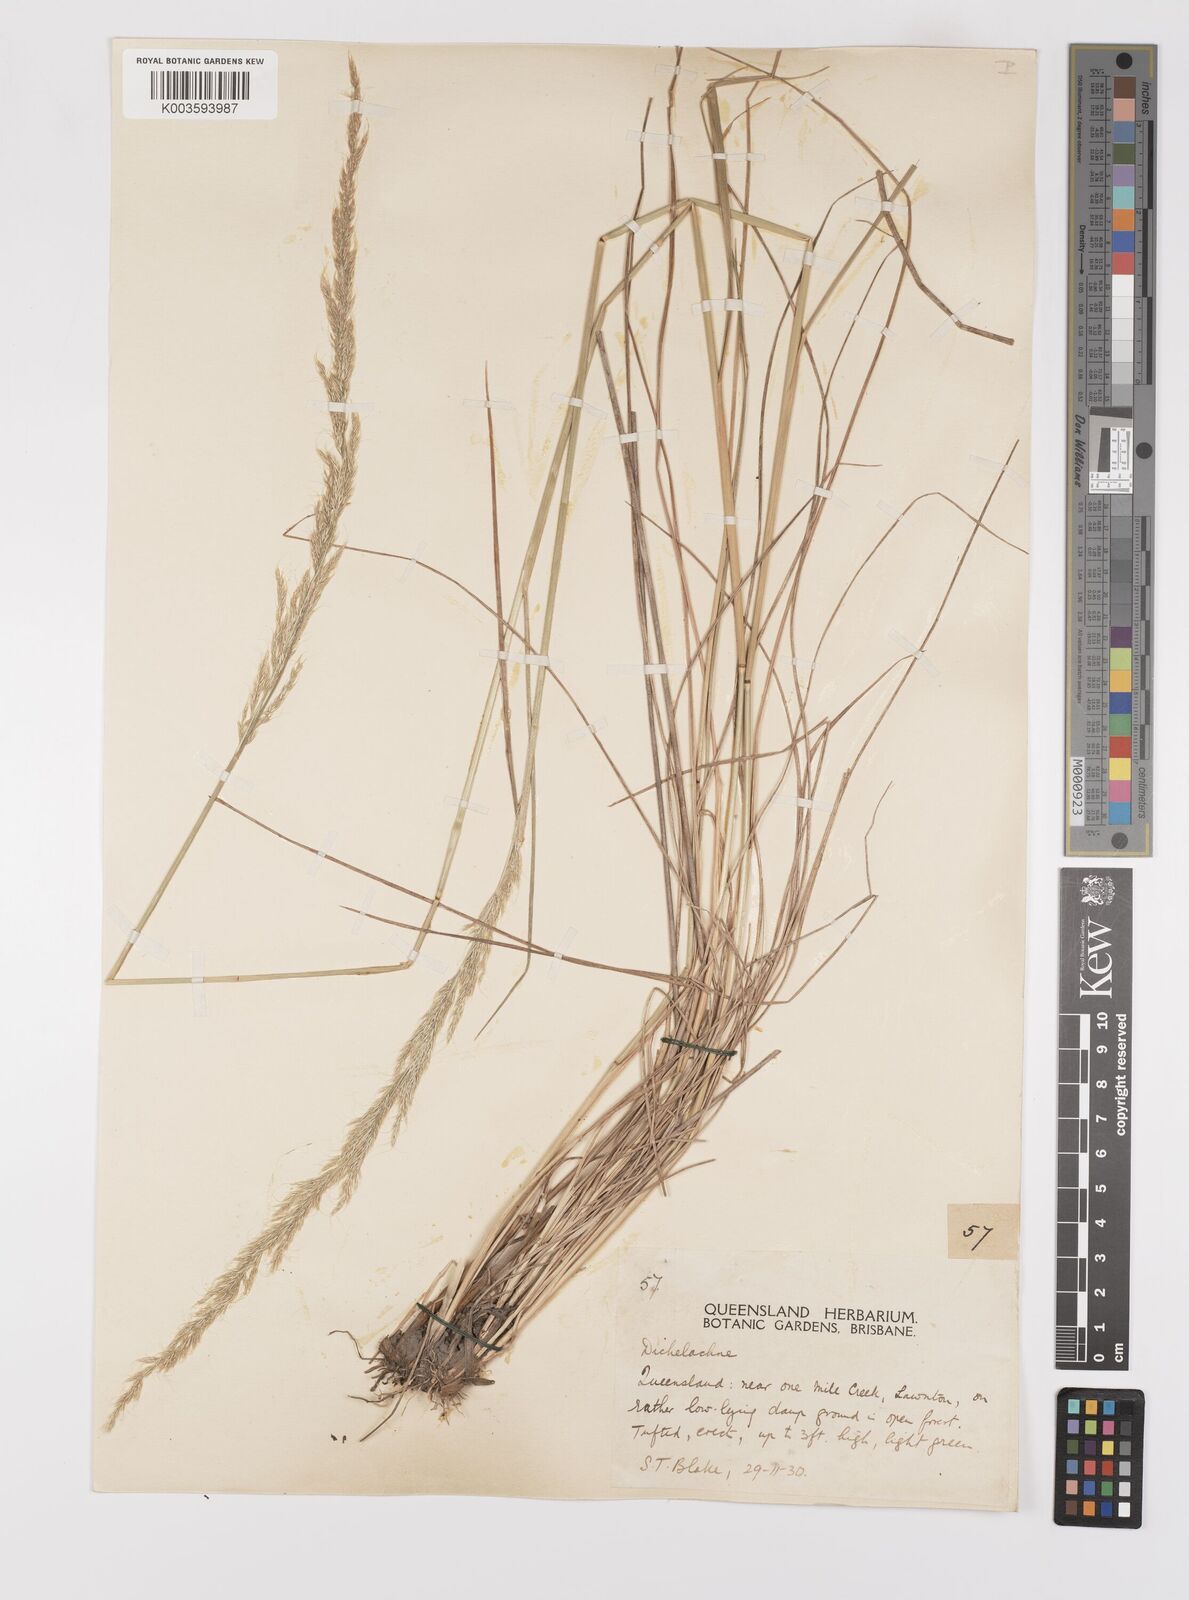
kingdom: Plantae
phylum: Tracheophyta
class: Liliopsida
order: Poales
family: Poaceae
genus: Dichelachne
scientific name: Dichelachne micrantha
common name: Plumegrass
